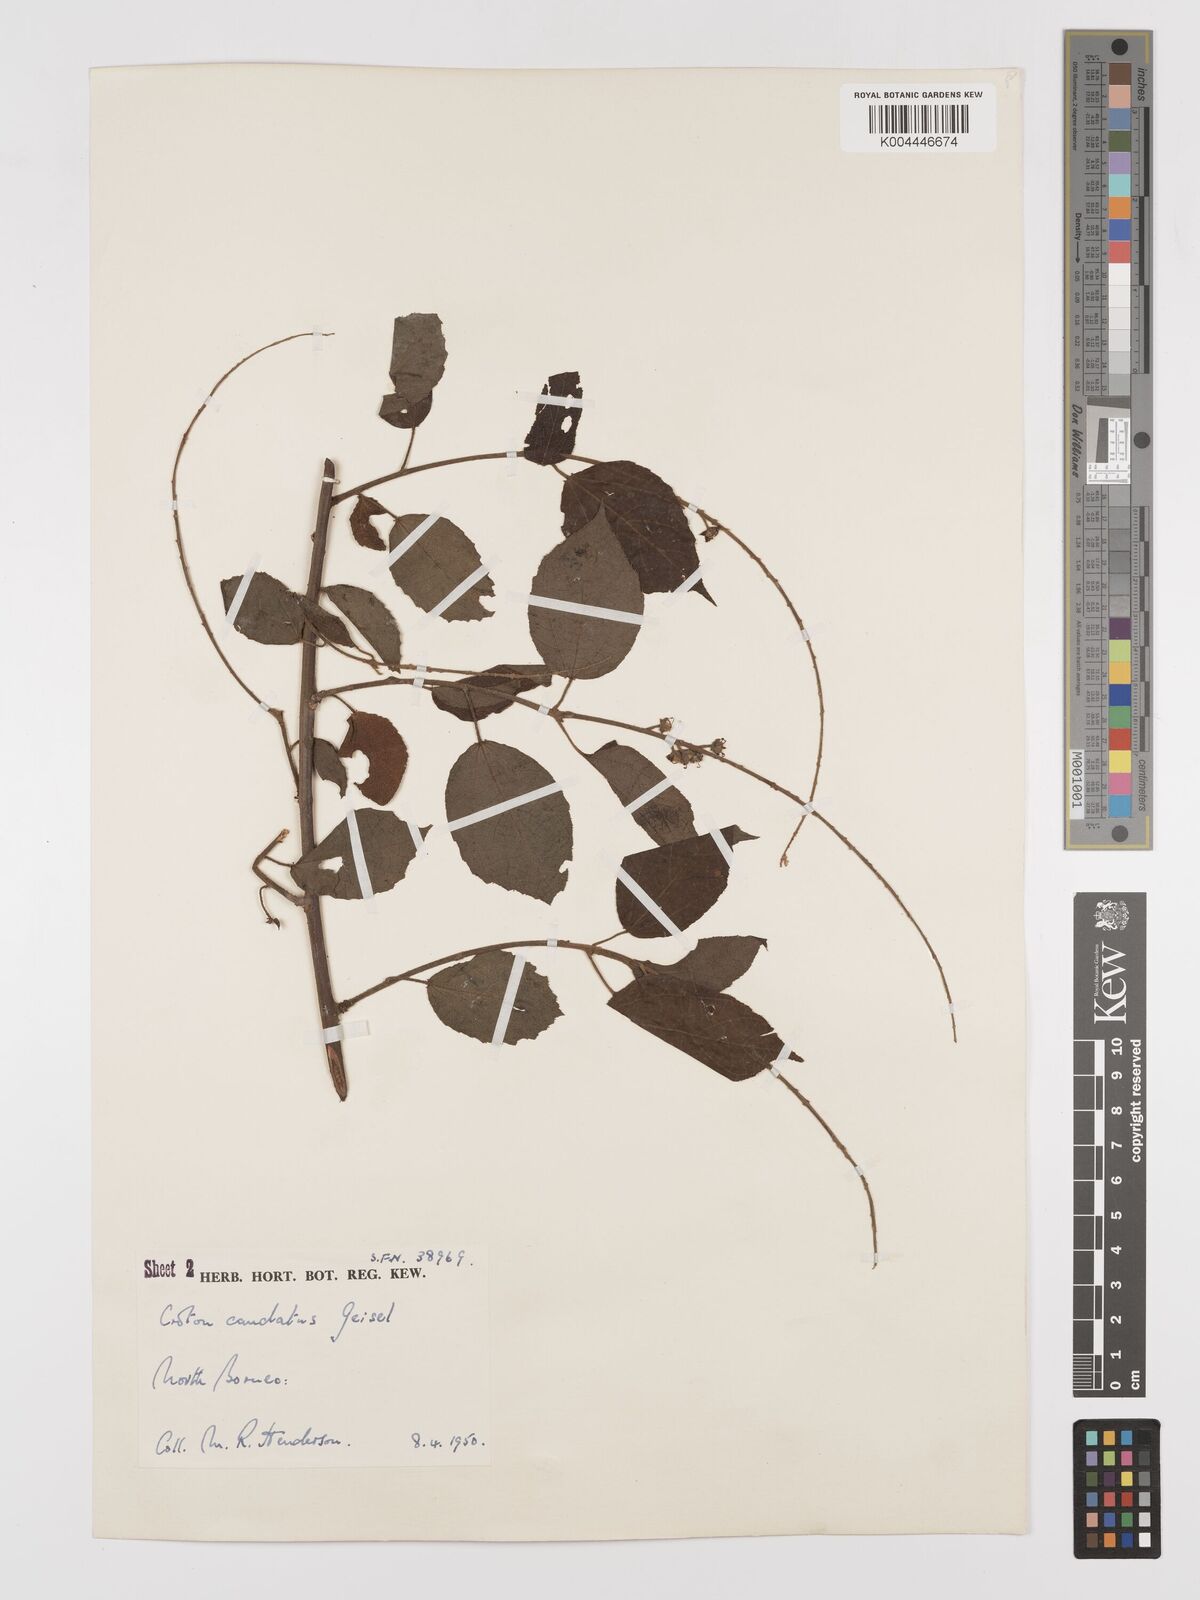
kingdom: Plantae
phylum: Tracheophyta
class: Magnoliopsida
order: Malpighiales
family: Euphorbiaceae
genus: Croton
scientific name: Croton caudatus
